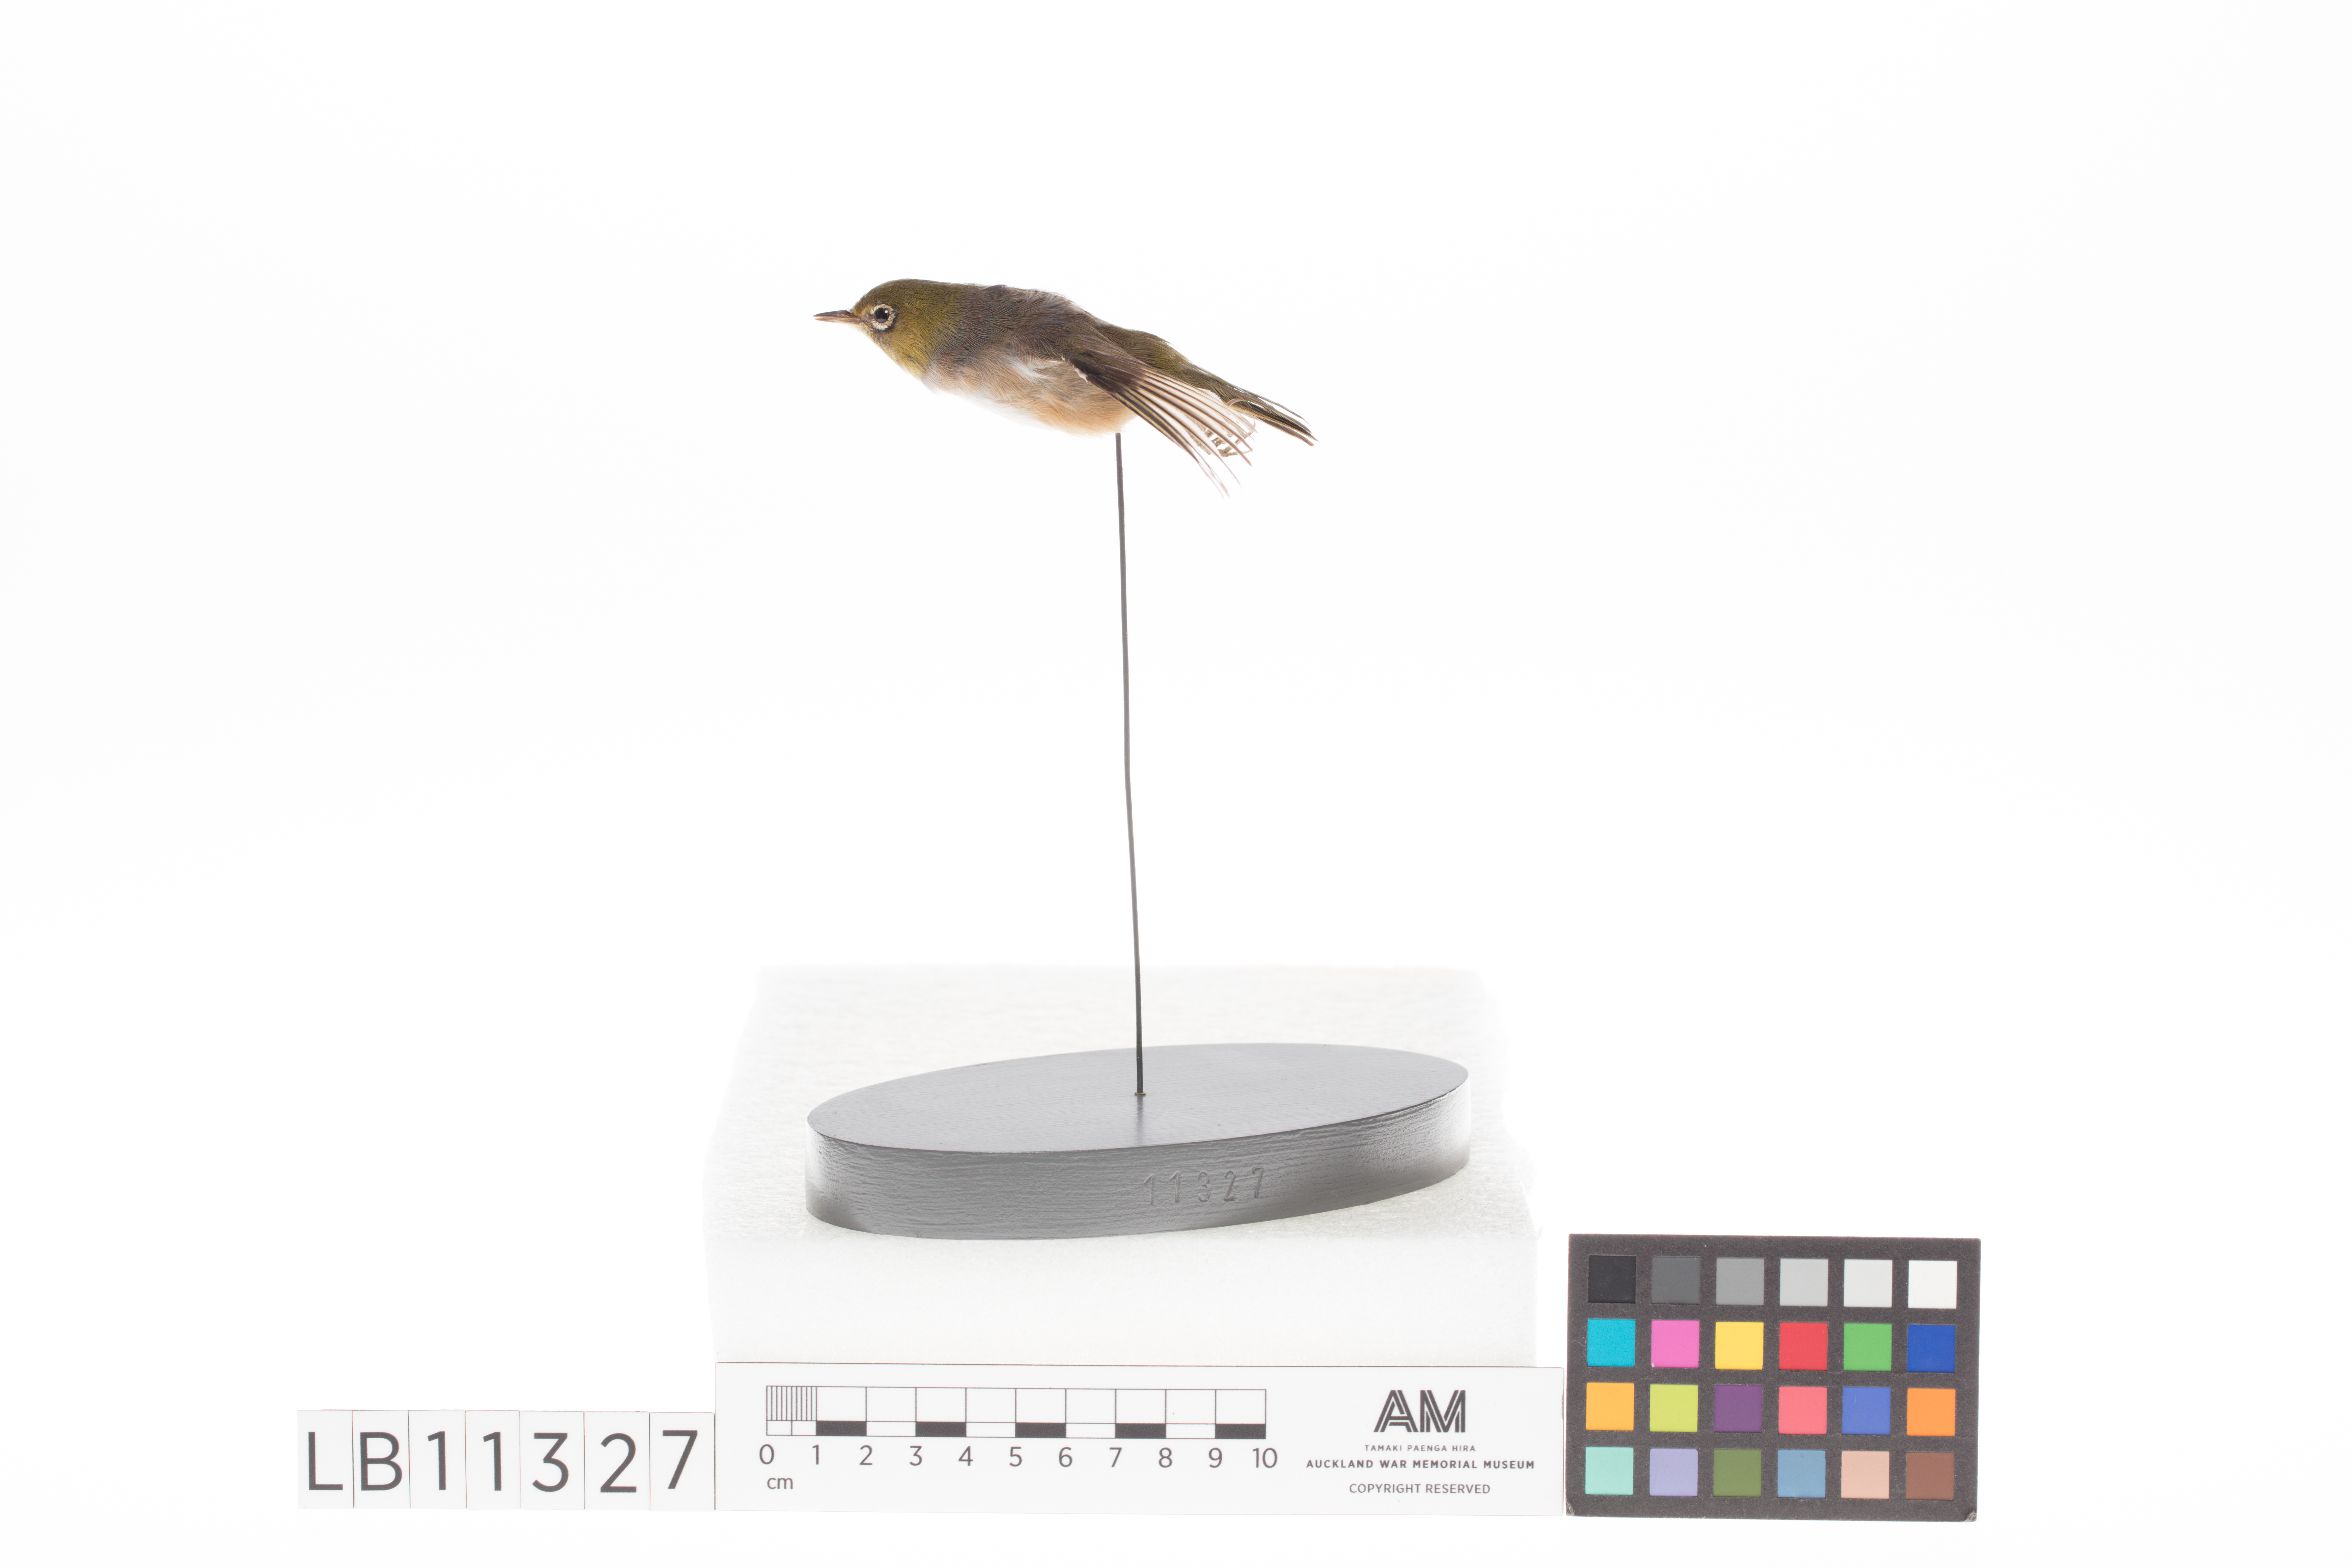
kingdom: Animalia
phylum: Chordata
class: Aves
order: Passeriformes
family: Zosteropidae
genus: Zosterops
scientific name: Zosterops lateralis
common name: Silvereye
